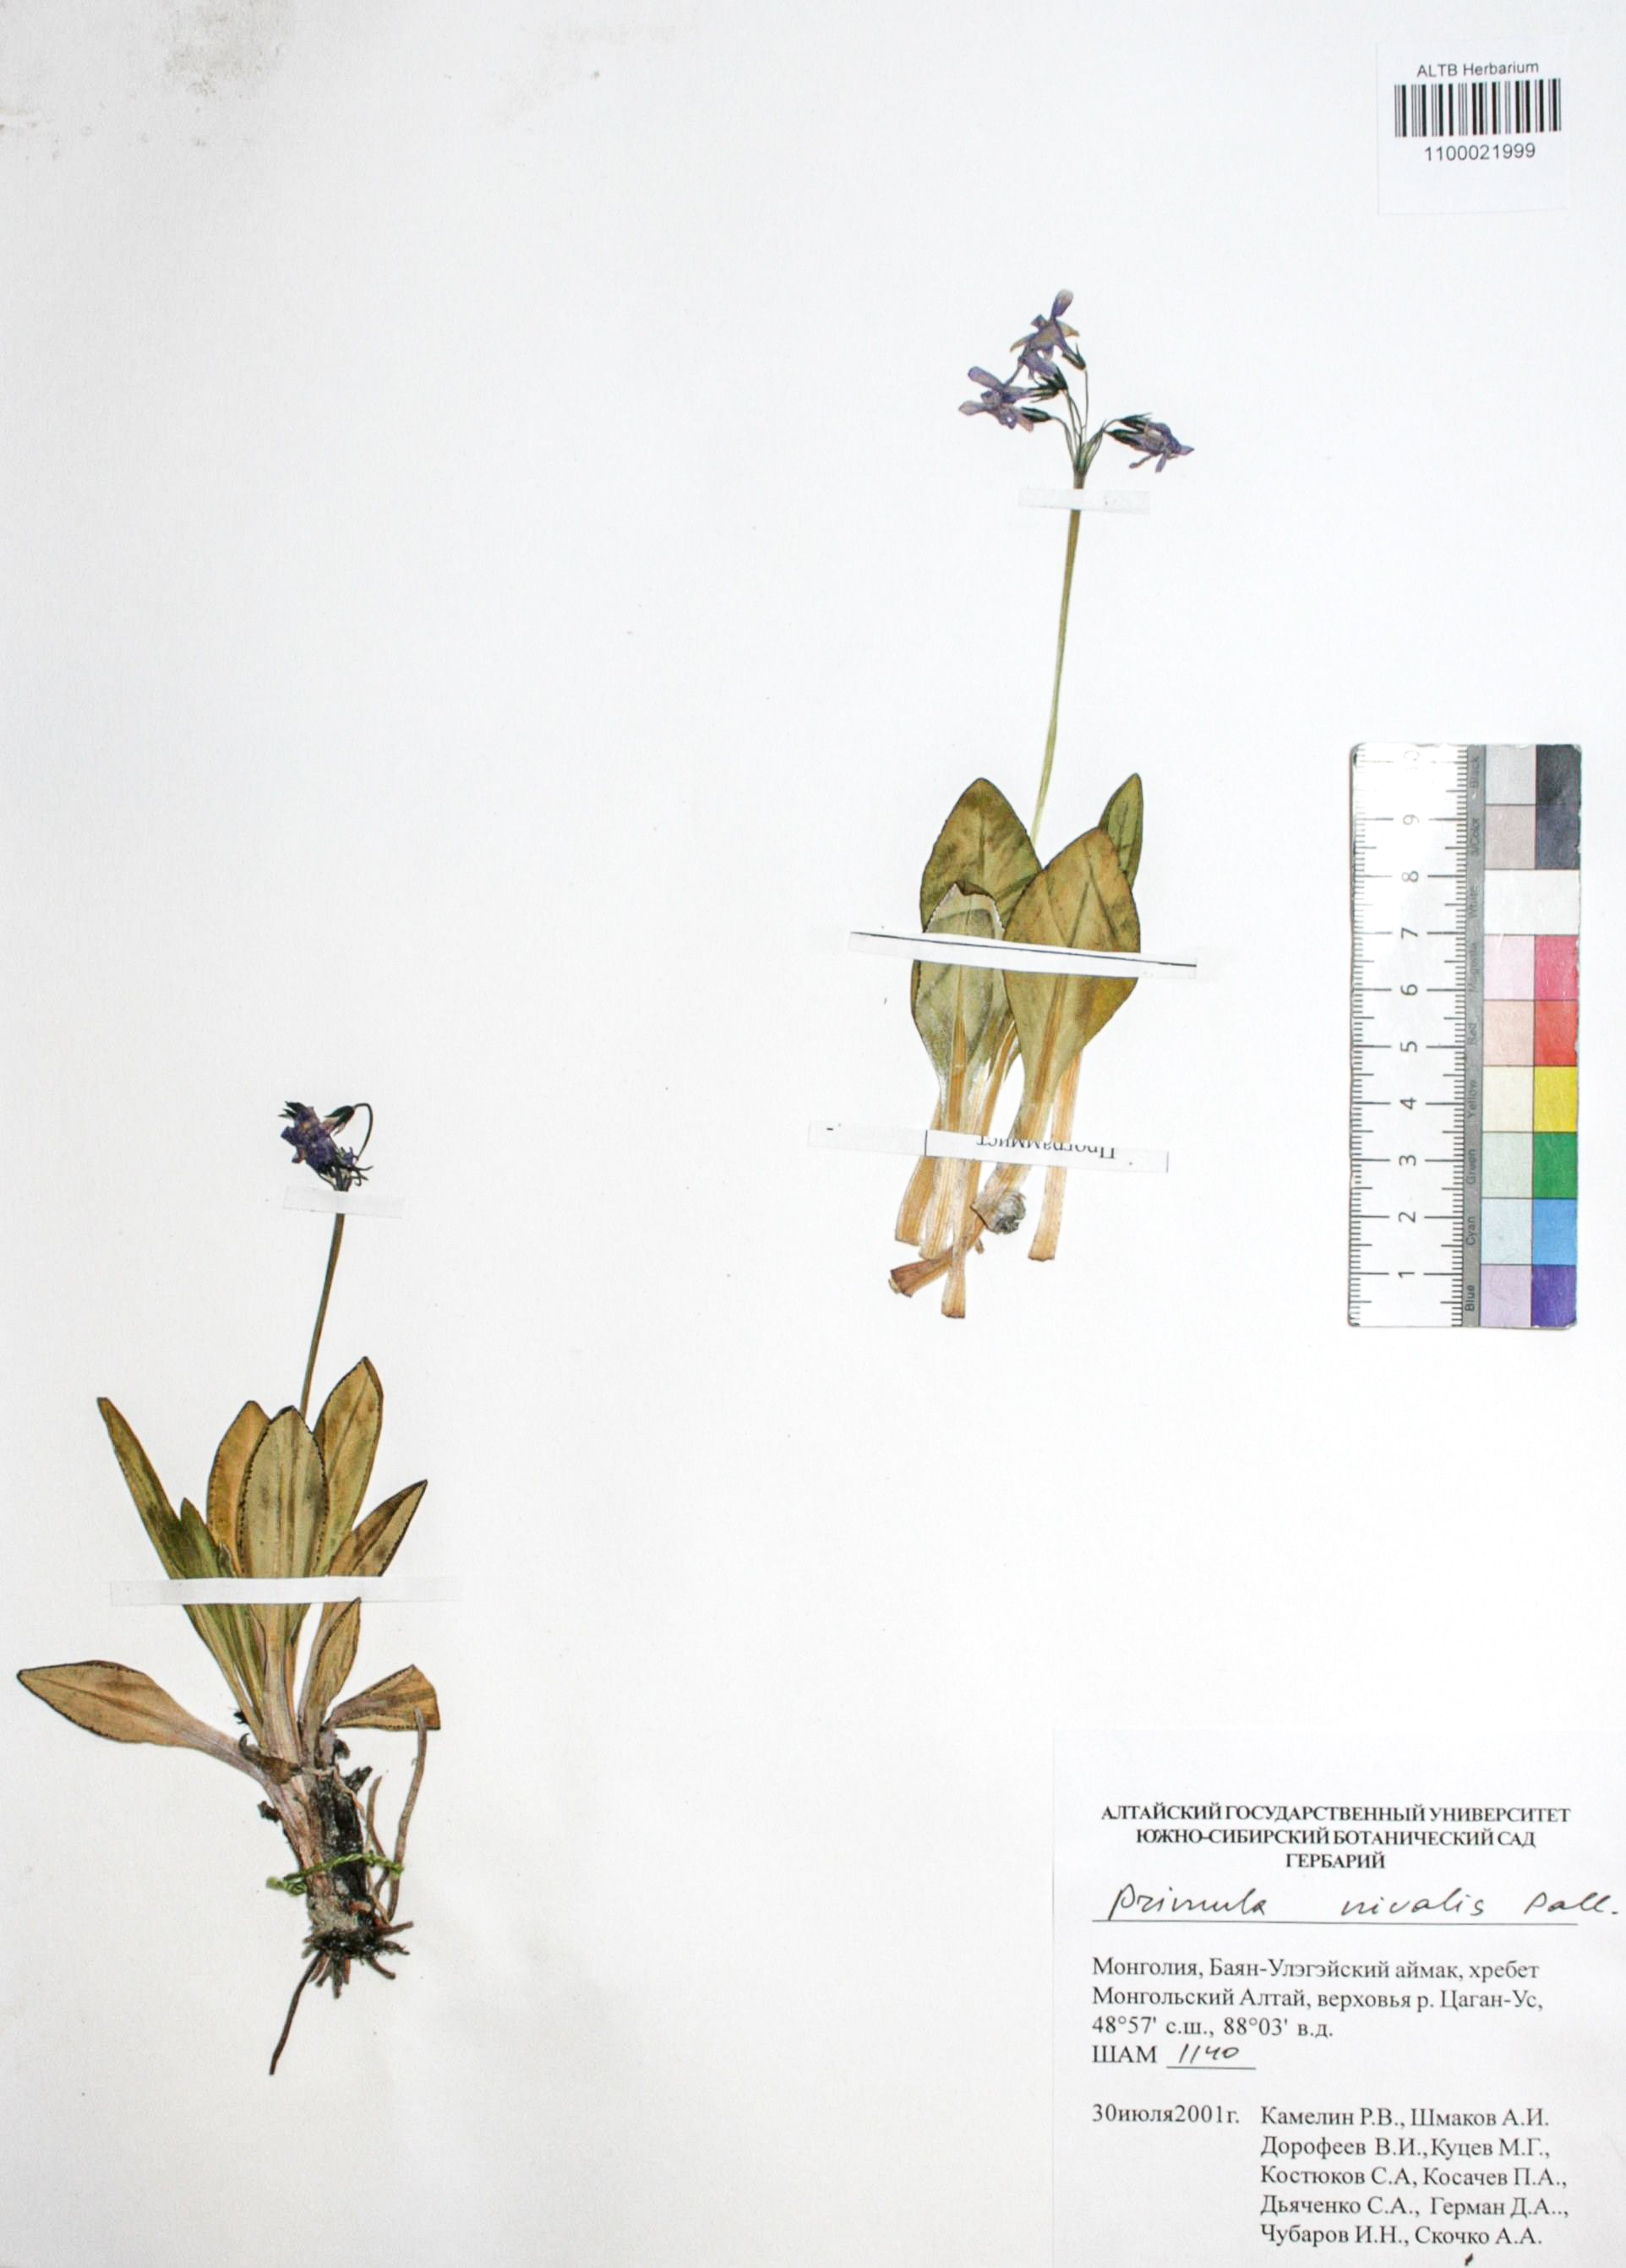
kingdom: Plantae
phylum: Tracheophyta
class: Magnoliopsida
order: Ericales
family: Primulaceae
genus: Primula
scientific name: Primula nivalis
